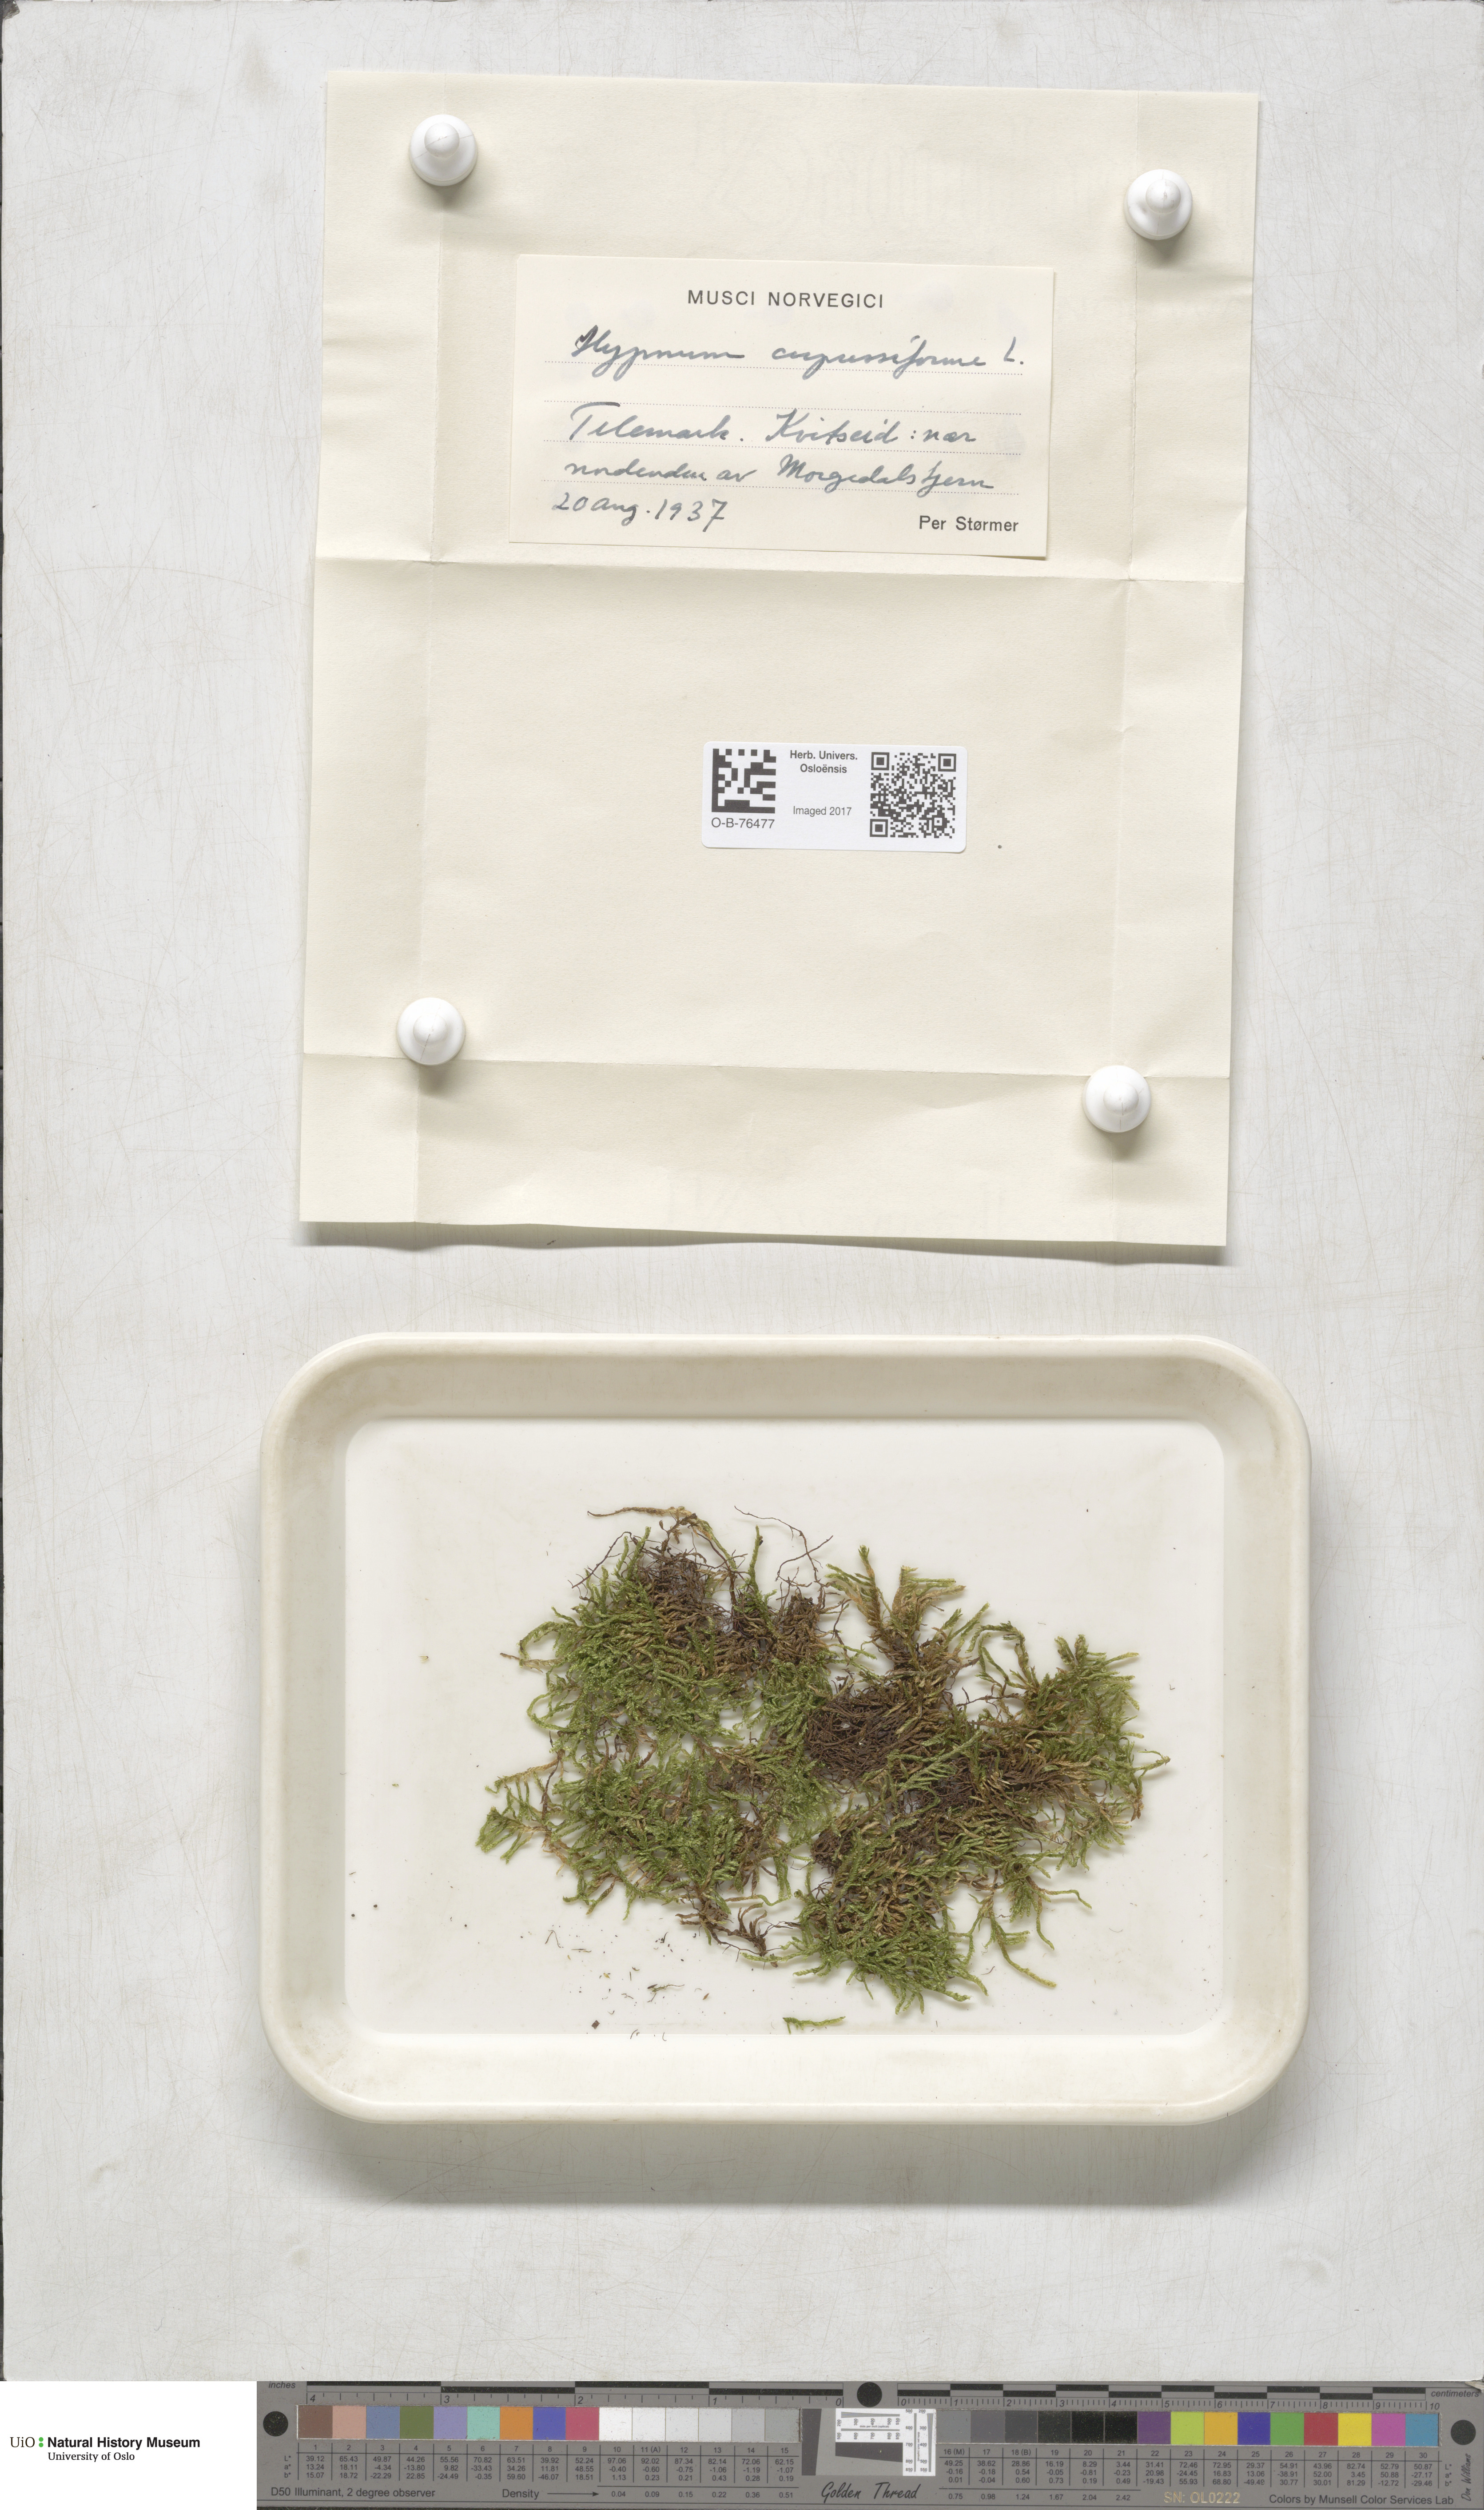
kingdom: Plantae
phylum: Bryophyta
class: Bryopsida
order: Hypnales
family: Hypnaceae
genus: Hypnum
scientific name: Hypnum cupressiforme
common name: Cypress-leaved plait-moss
